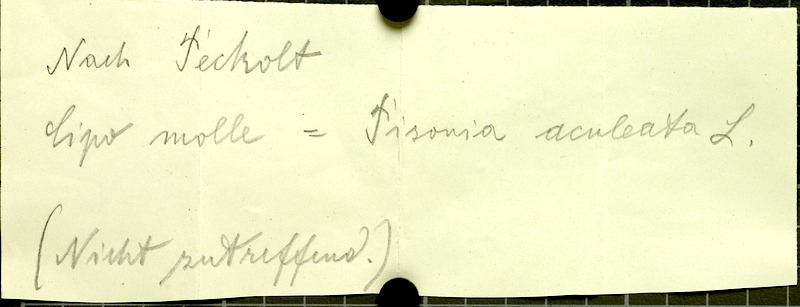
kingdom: Plantae
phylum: Tracheophyta
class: Magnoliopsida
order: Vitales
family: Vitaceae
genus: Cissus
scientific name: Cissus decidua
